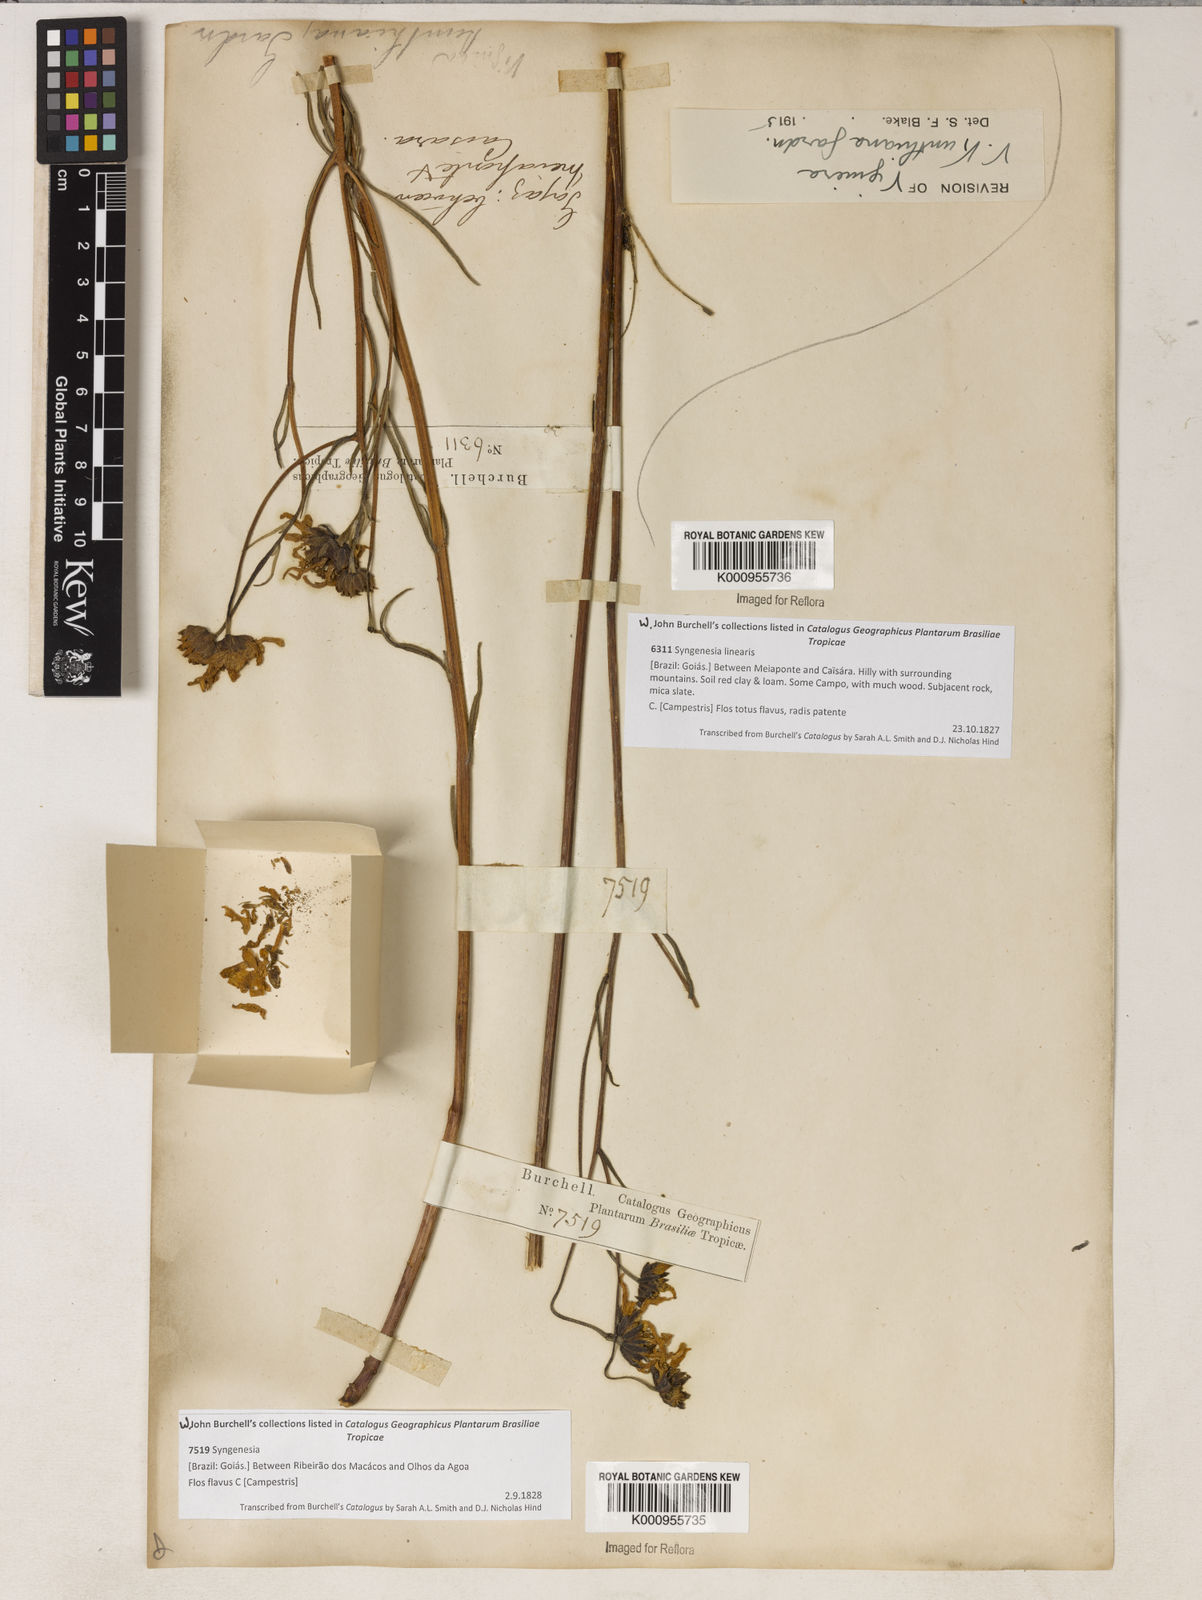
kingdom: Plantae
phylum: Tracheophyta
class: Magnoliopsida
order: Asterales
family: Asteraceae
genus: Aldama
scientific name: Aldama kunthiana
